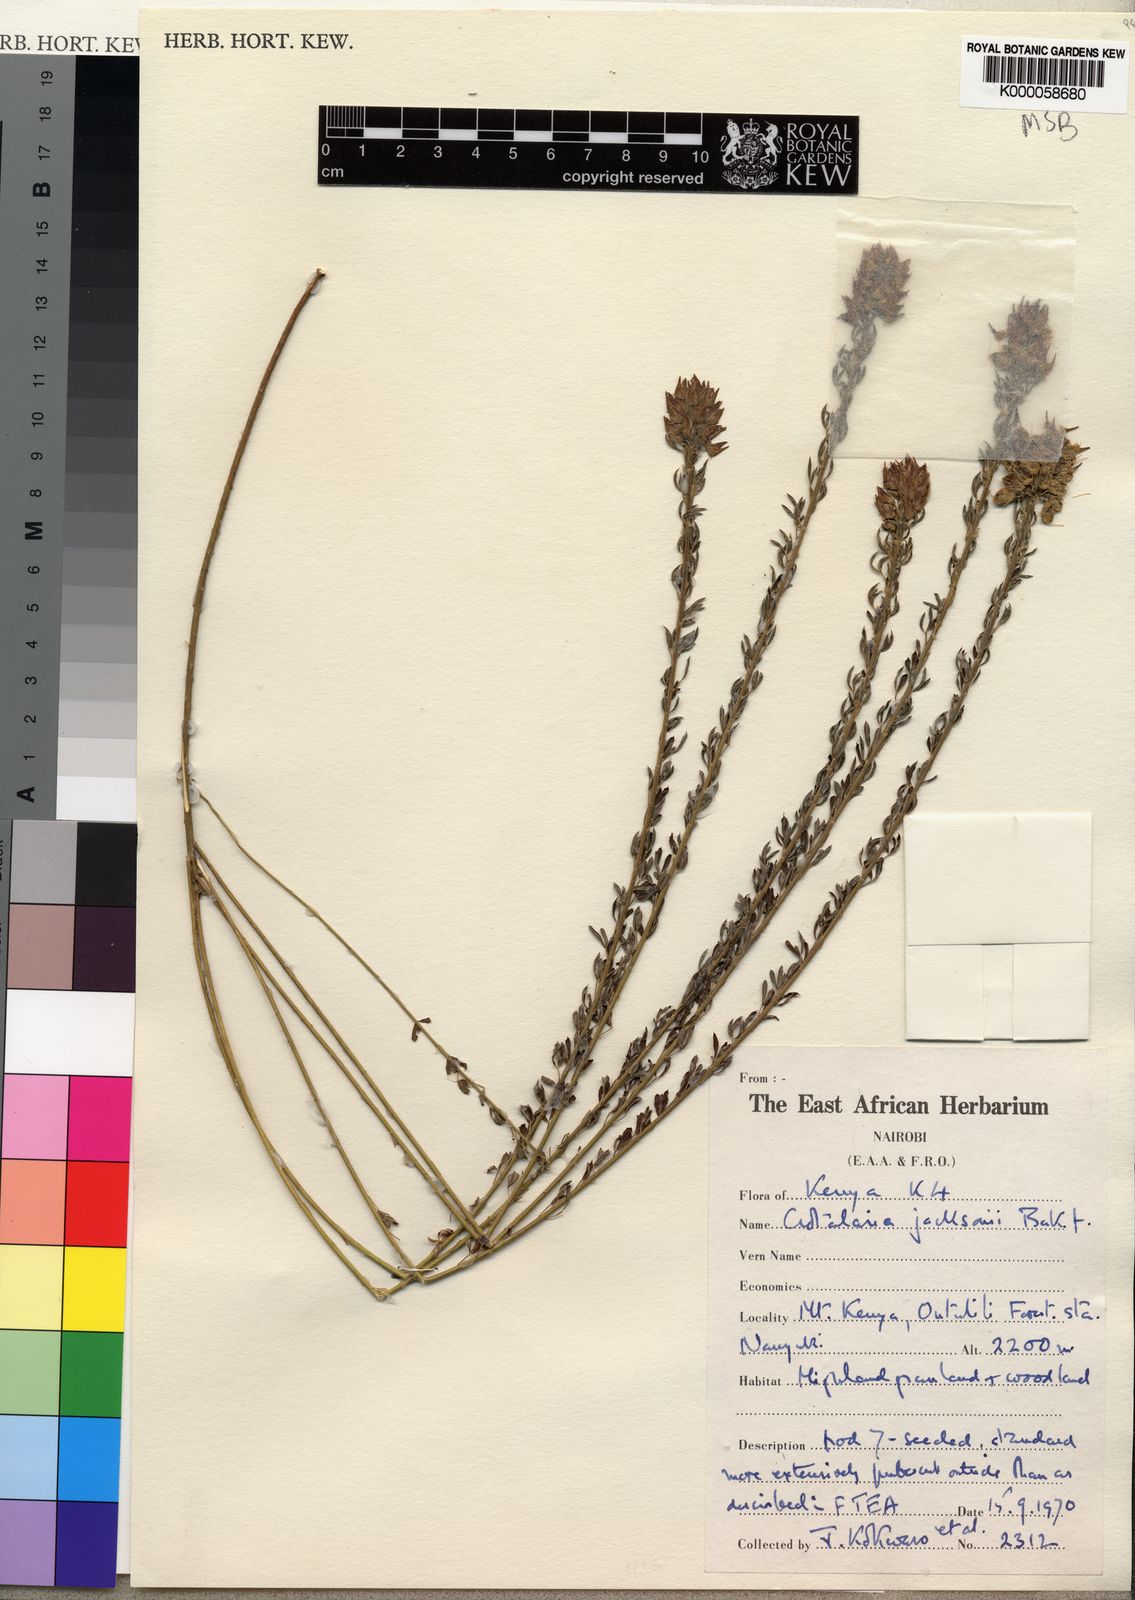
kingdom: Plantae
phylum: Tracheophyta
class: Magnoliopsida
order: Fabales
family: Fabaceae
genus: Crotalaria
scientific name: Crotalaria jacksonii
